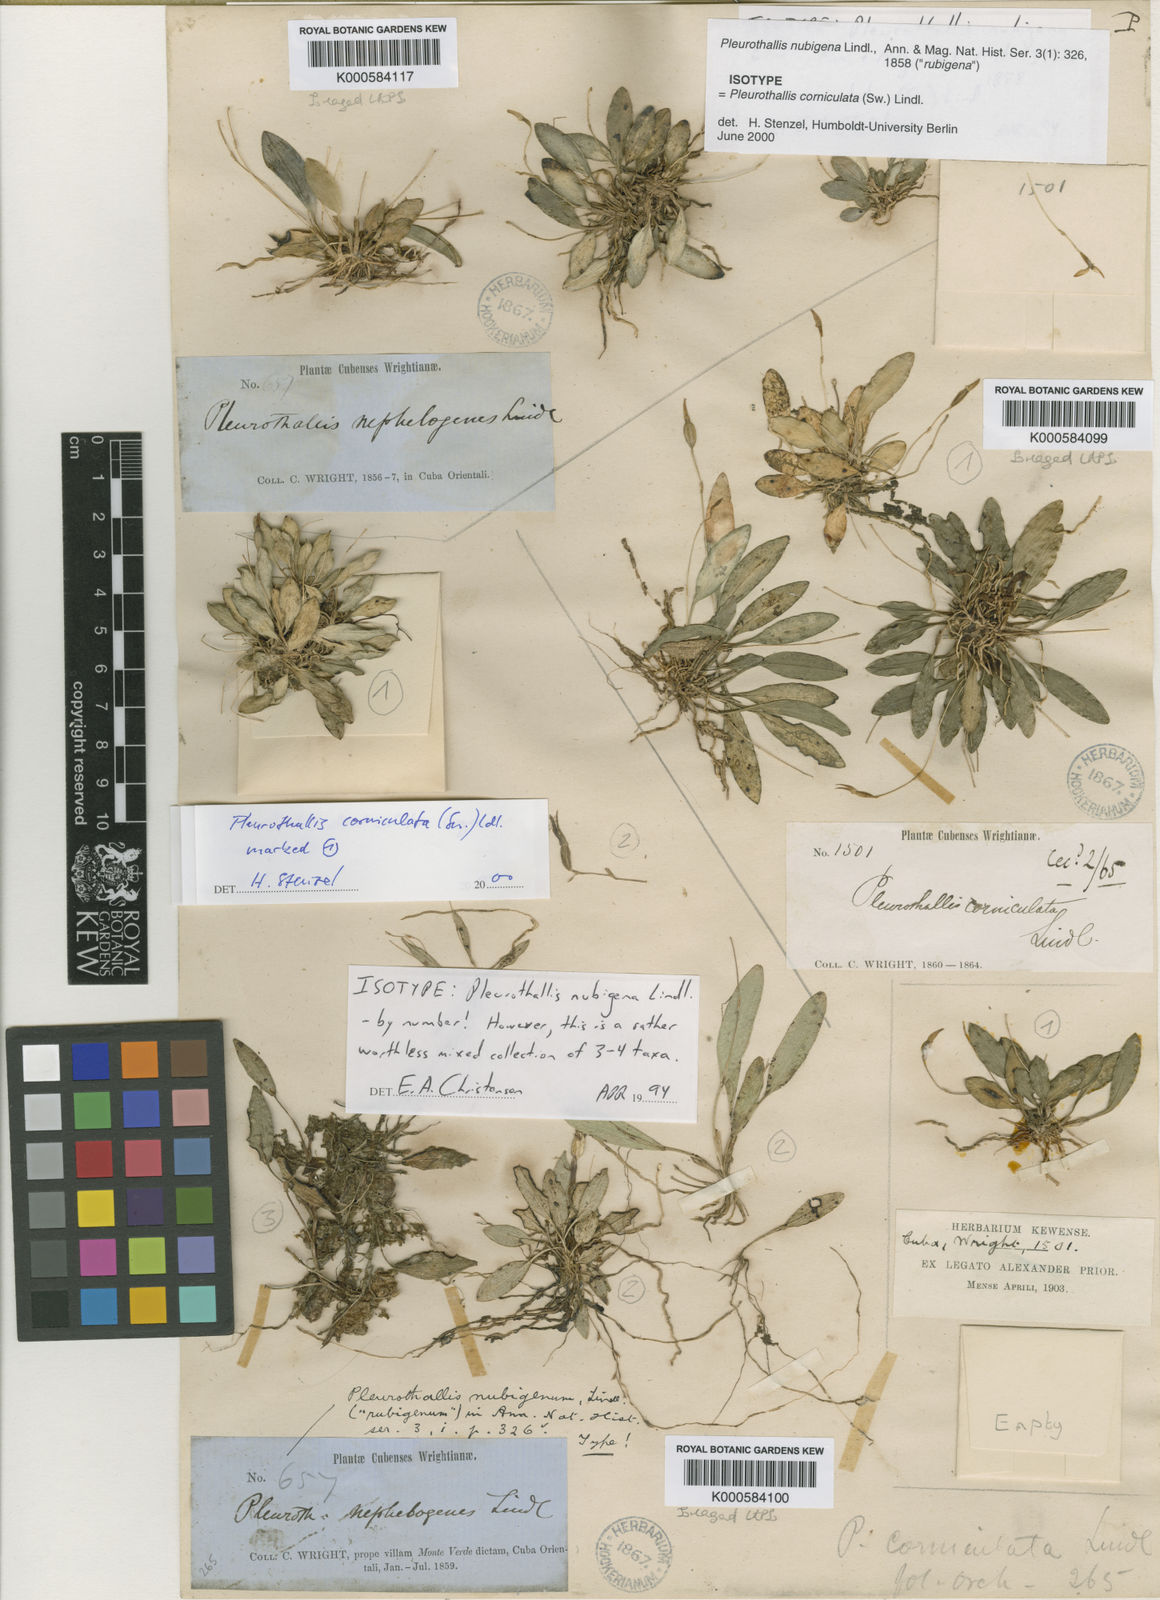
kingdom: Plantae
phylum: Tracheophyta
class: Liliopsida
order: Asparagales
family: Orchidaceae
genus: Specklinia
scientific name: Specklinia corniculata
